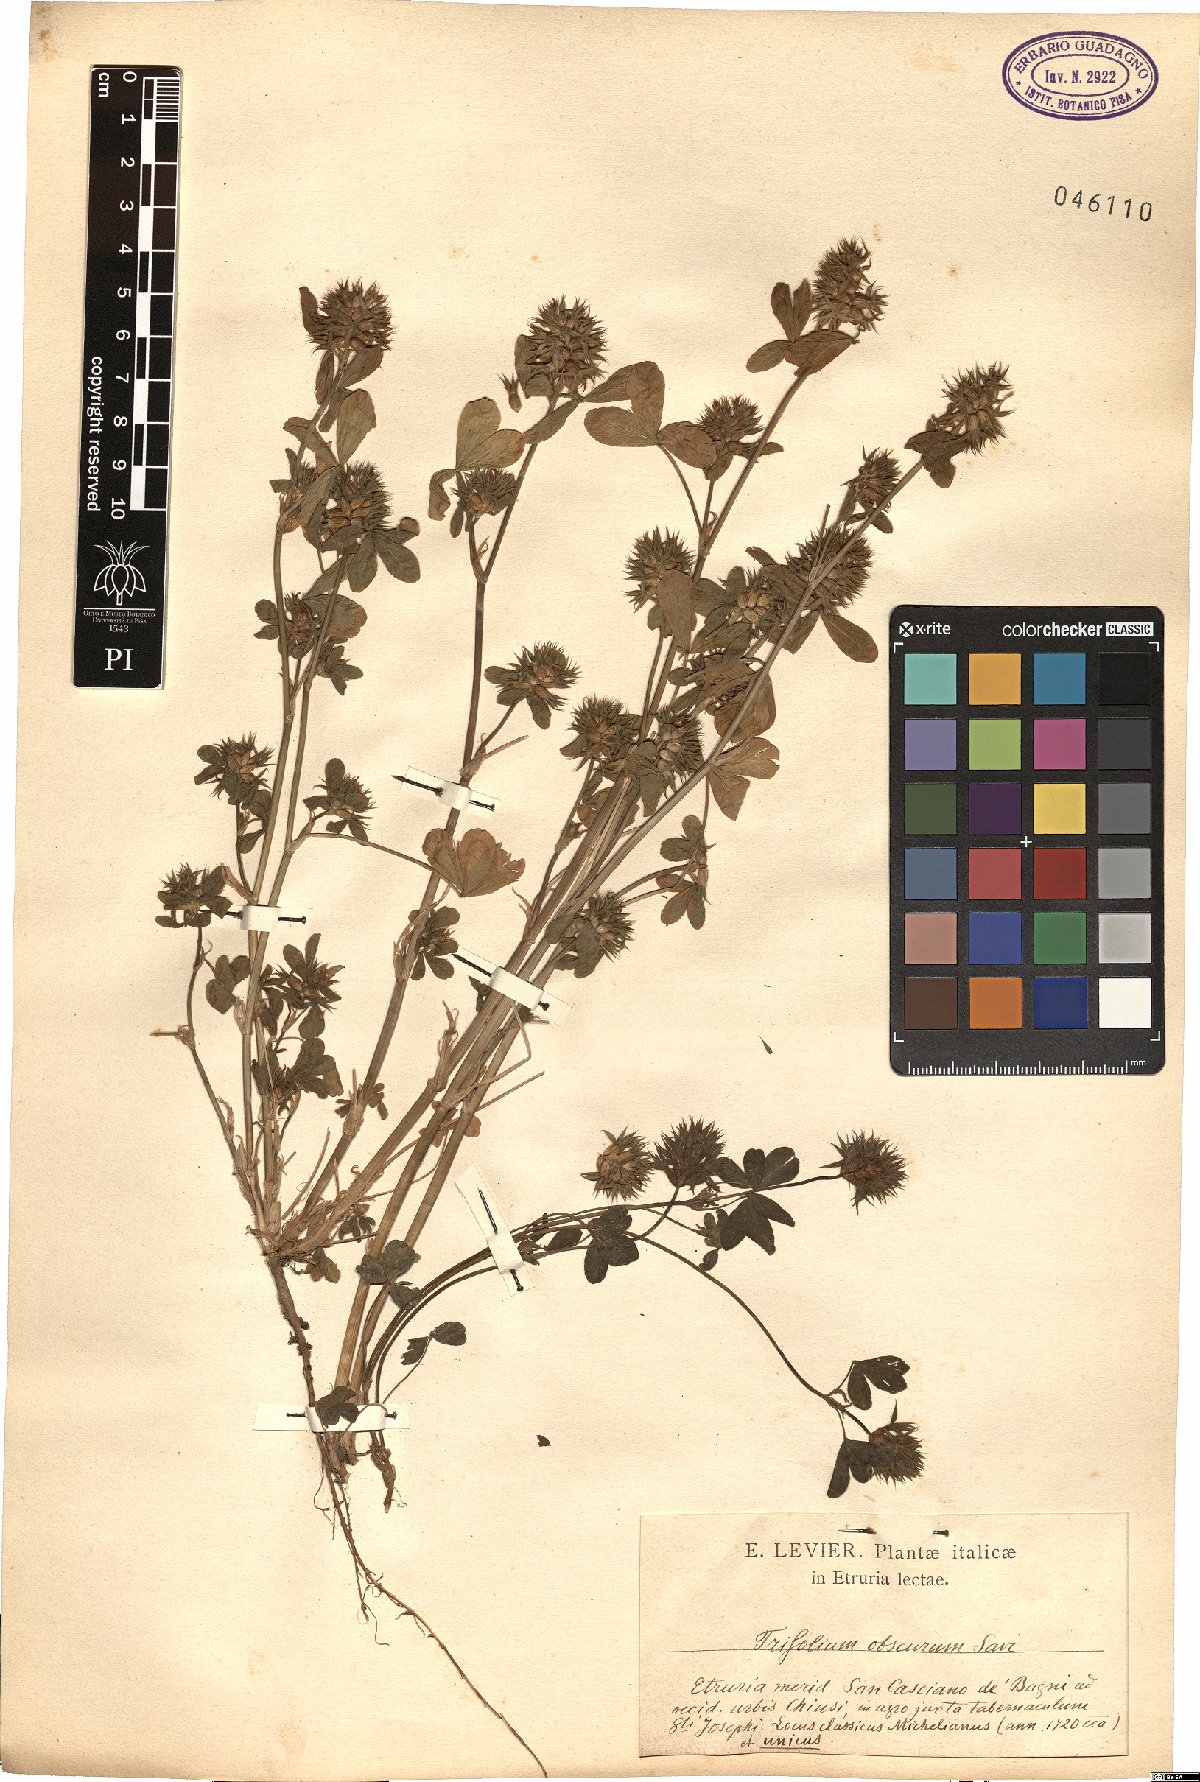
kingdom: Plantae
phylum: Tracheophyta
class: Magnoliopsida
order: Fabales
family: Fabaceae
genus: Trifolium
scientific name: Trifolium obscurum
